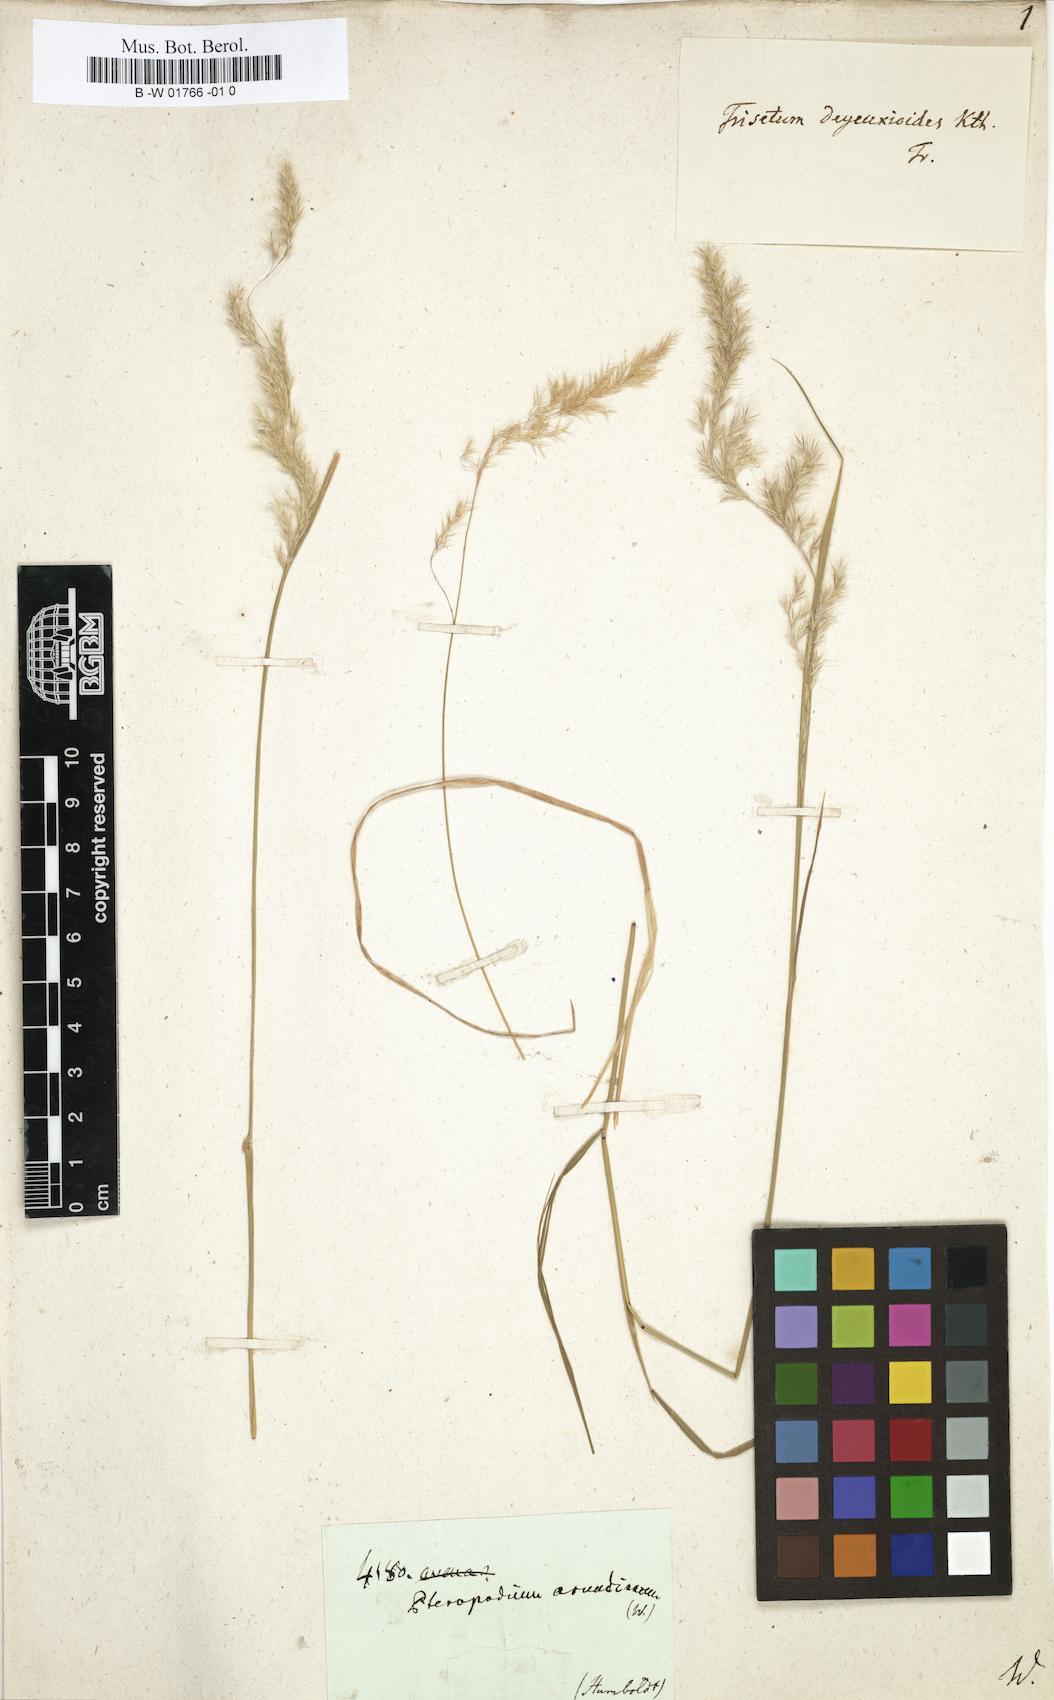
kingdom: Plantae
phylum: Tracheophyta
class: Liliopsida
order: Poales
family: Poaceae
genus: Peyritschia
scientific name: Peyritschia deyeuxioides
